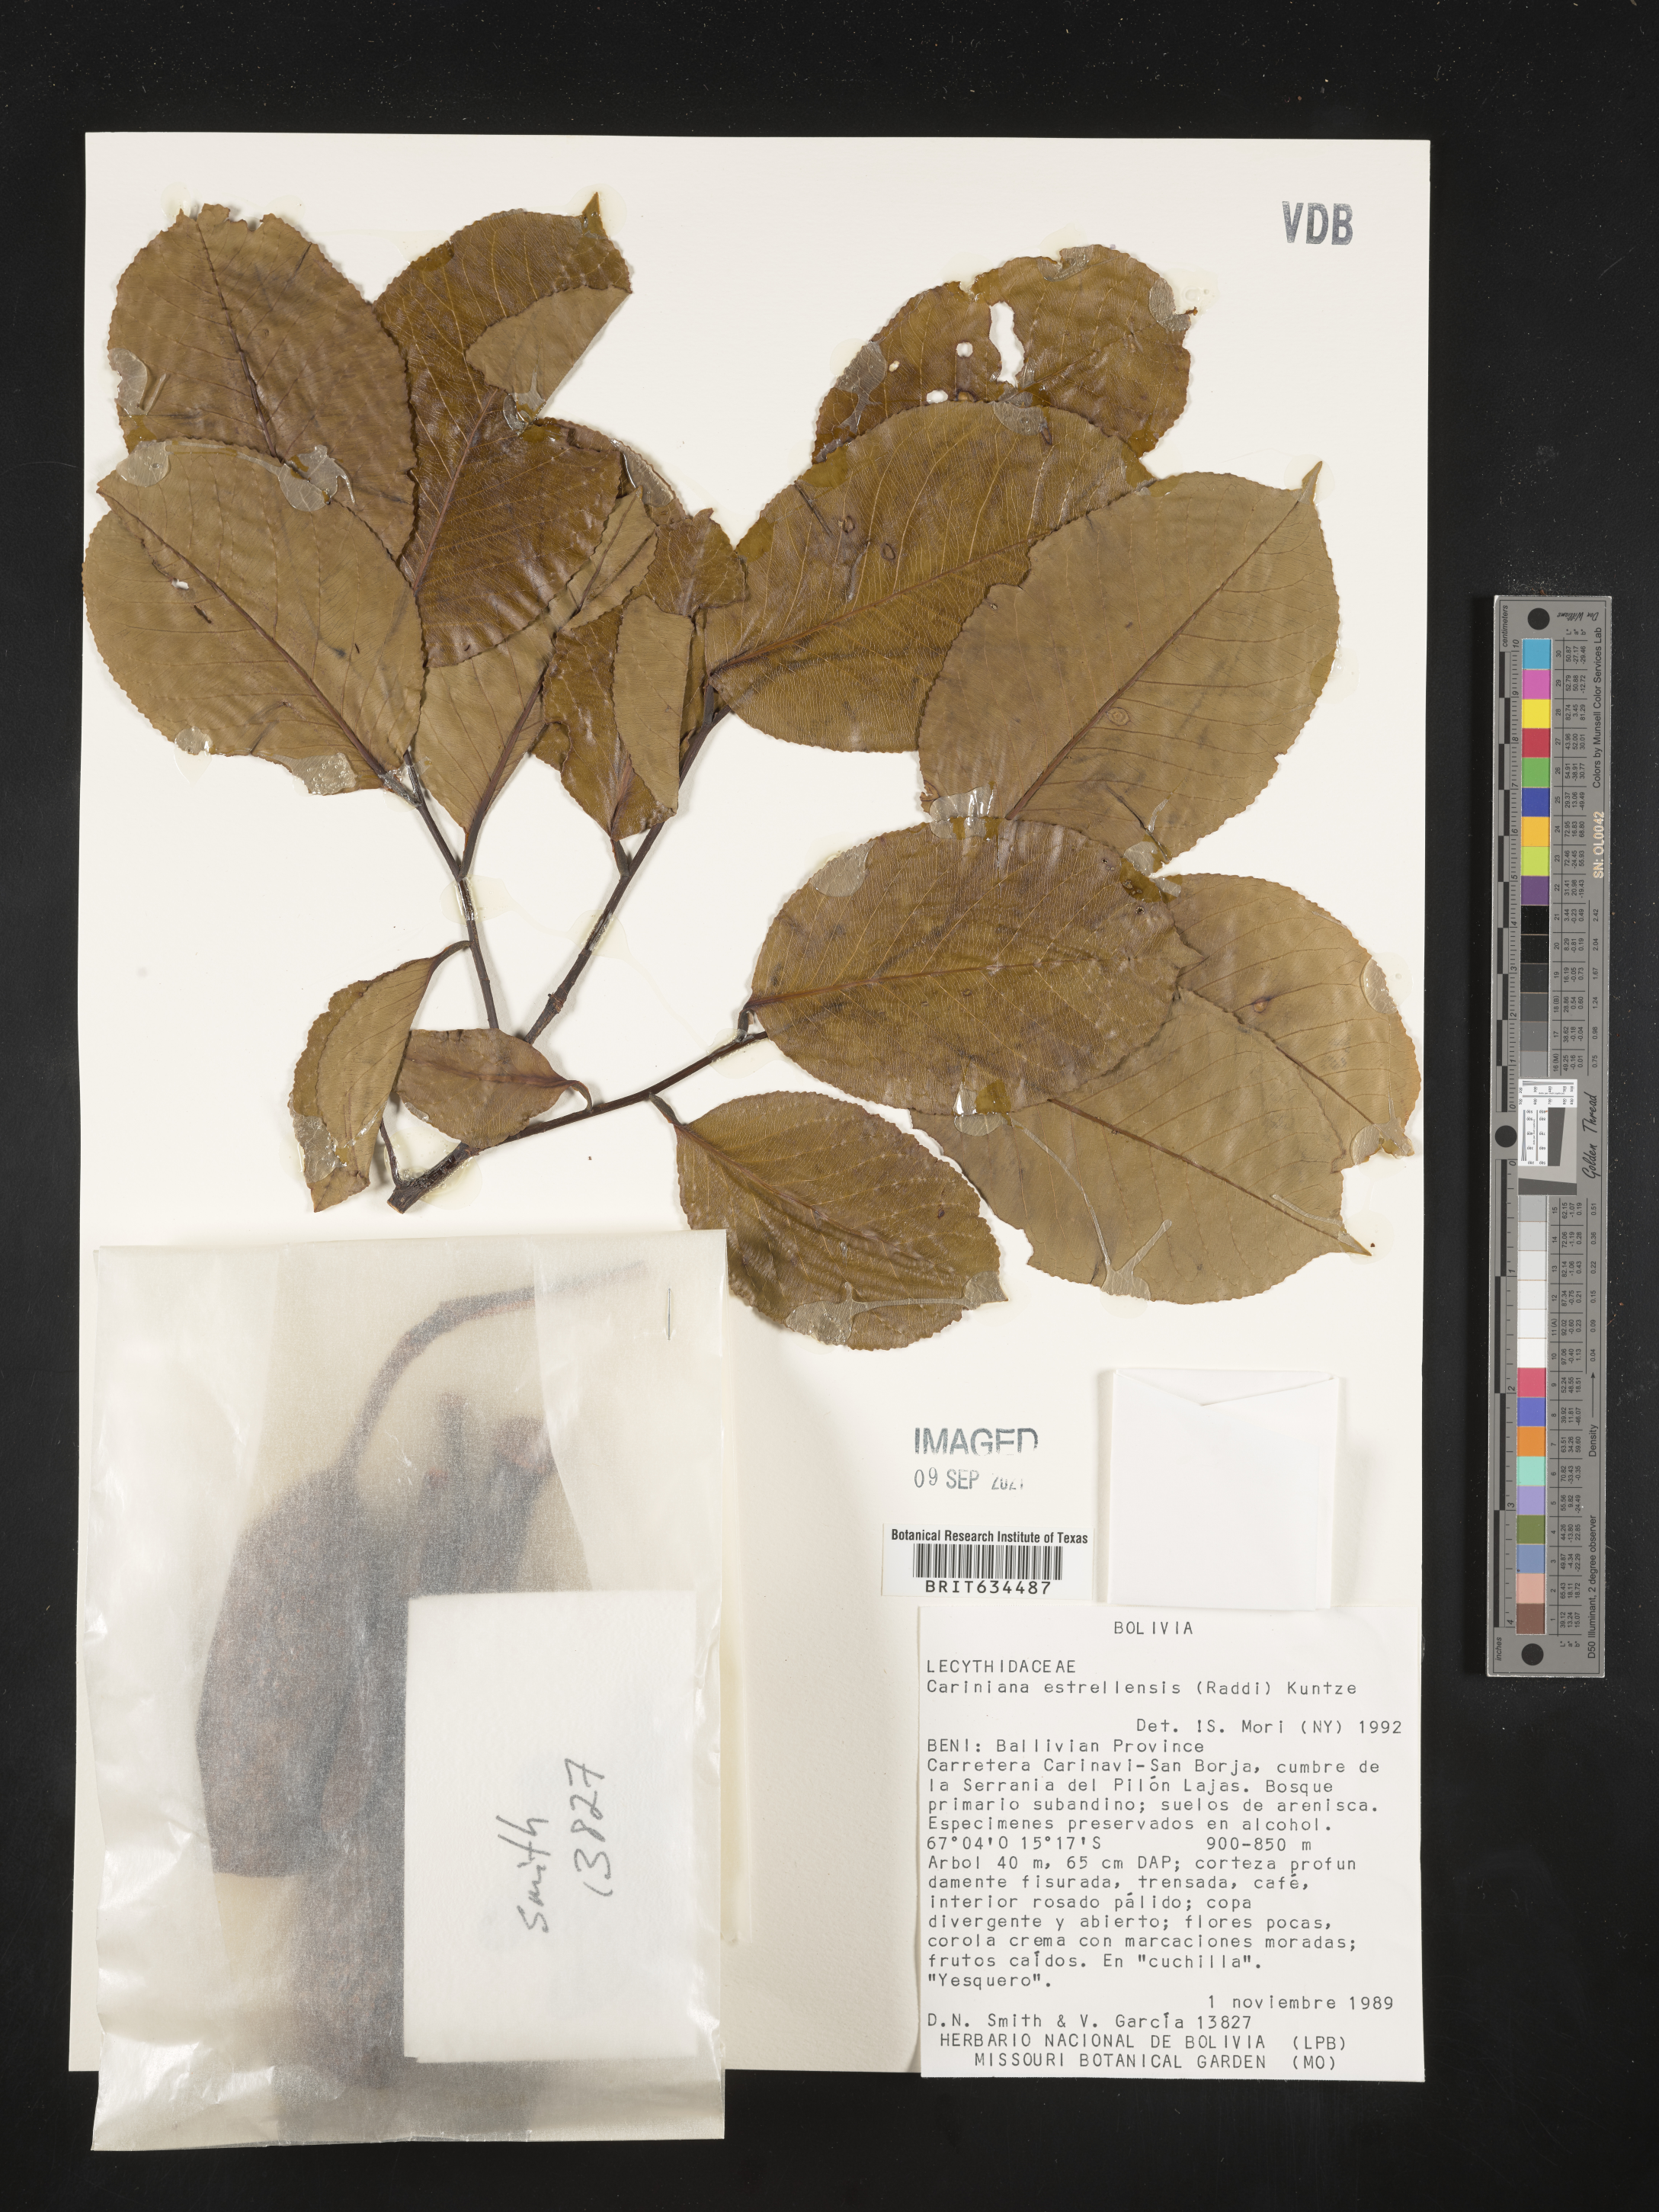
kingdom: Plantae
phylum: Tracheophyta
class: Magnoliopsida
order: Ericales
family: Lecythidaceae
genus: Cariniana
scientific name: Cariniana
